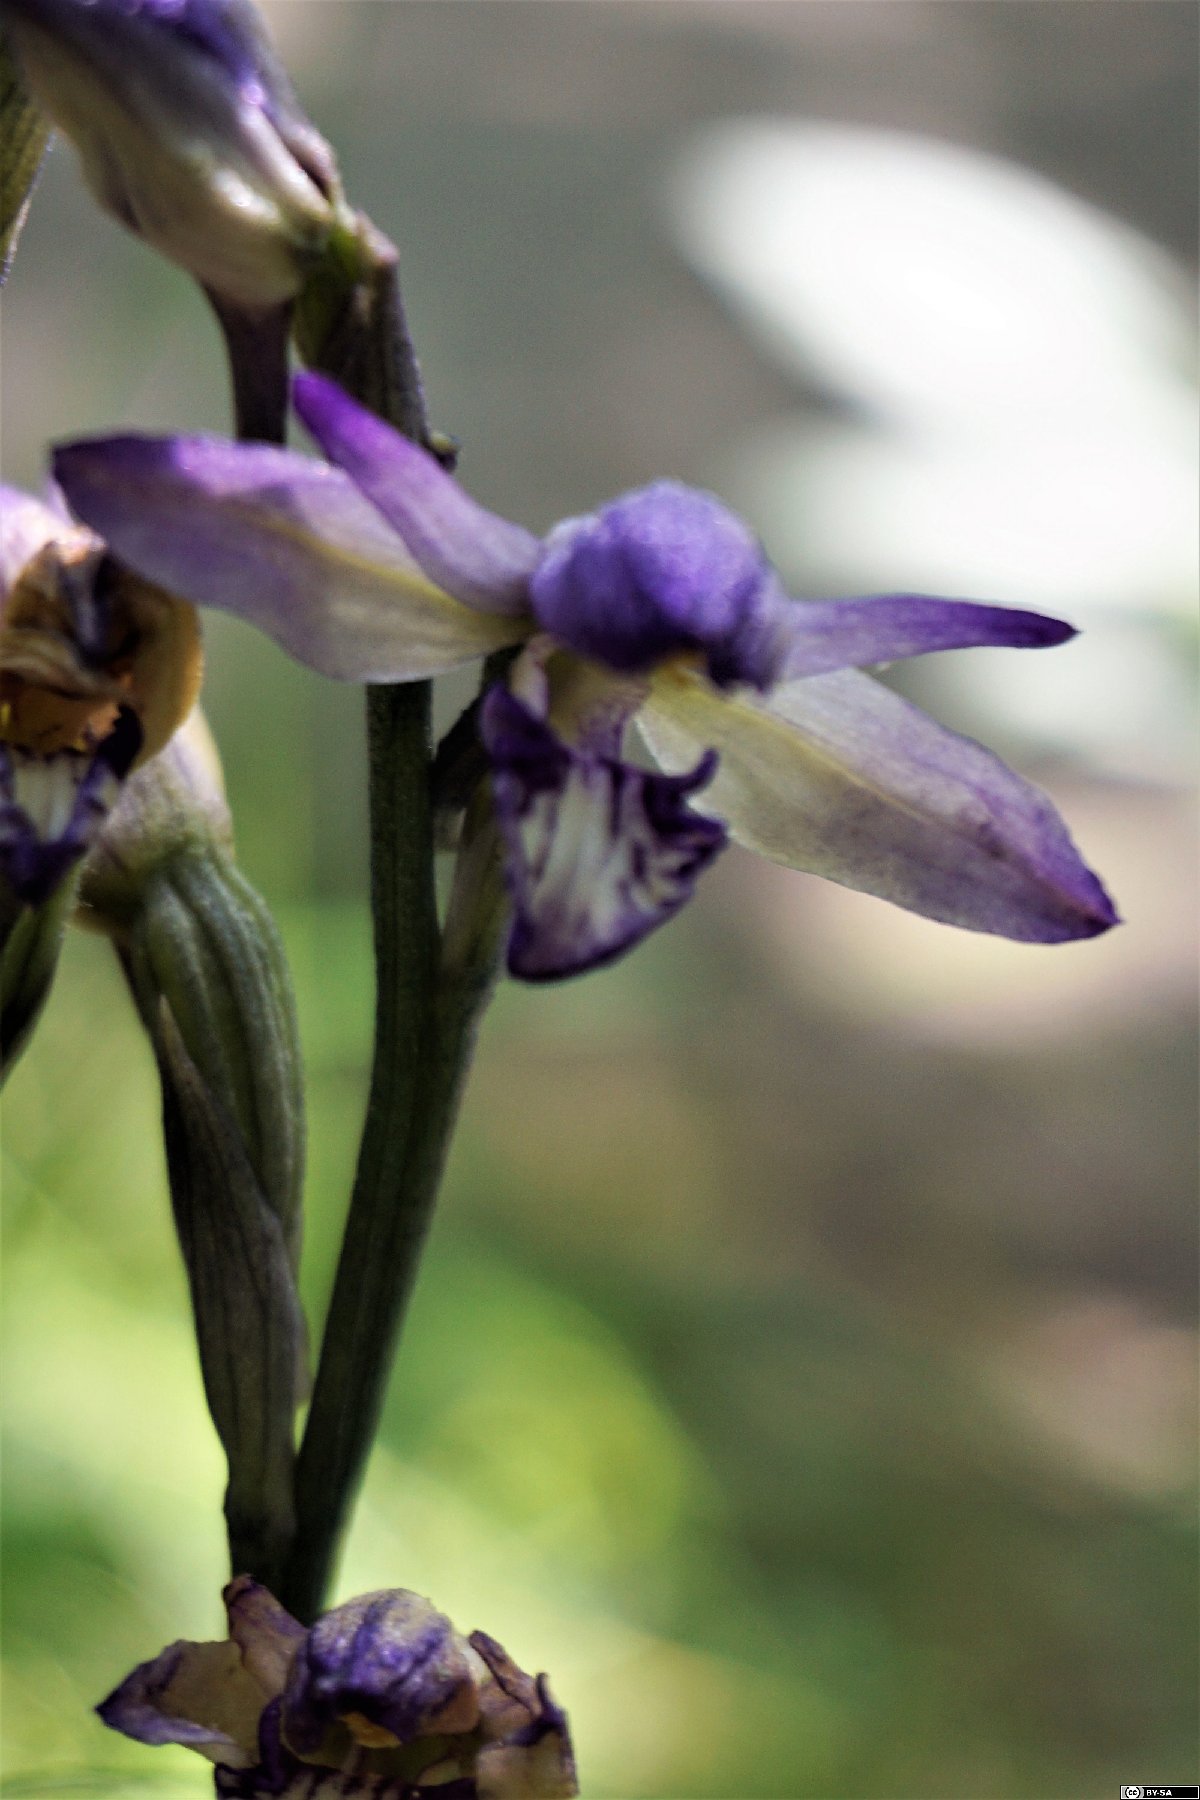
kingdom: Plantae
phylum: Tracheophyta
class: Liliopsida
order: Asparagales
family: Orchidaceae
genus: Limodorum
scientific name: Limodorum abortivum
